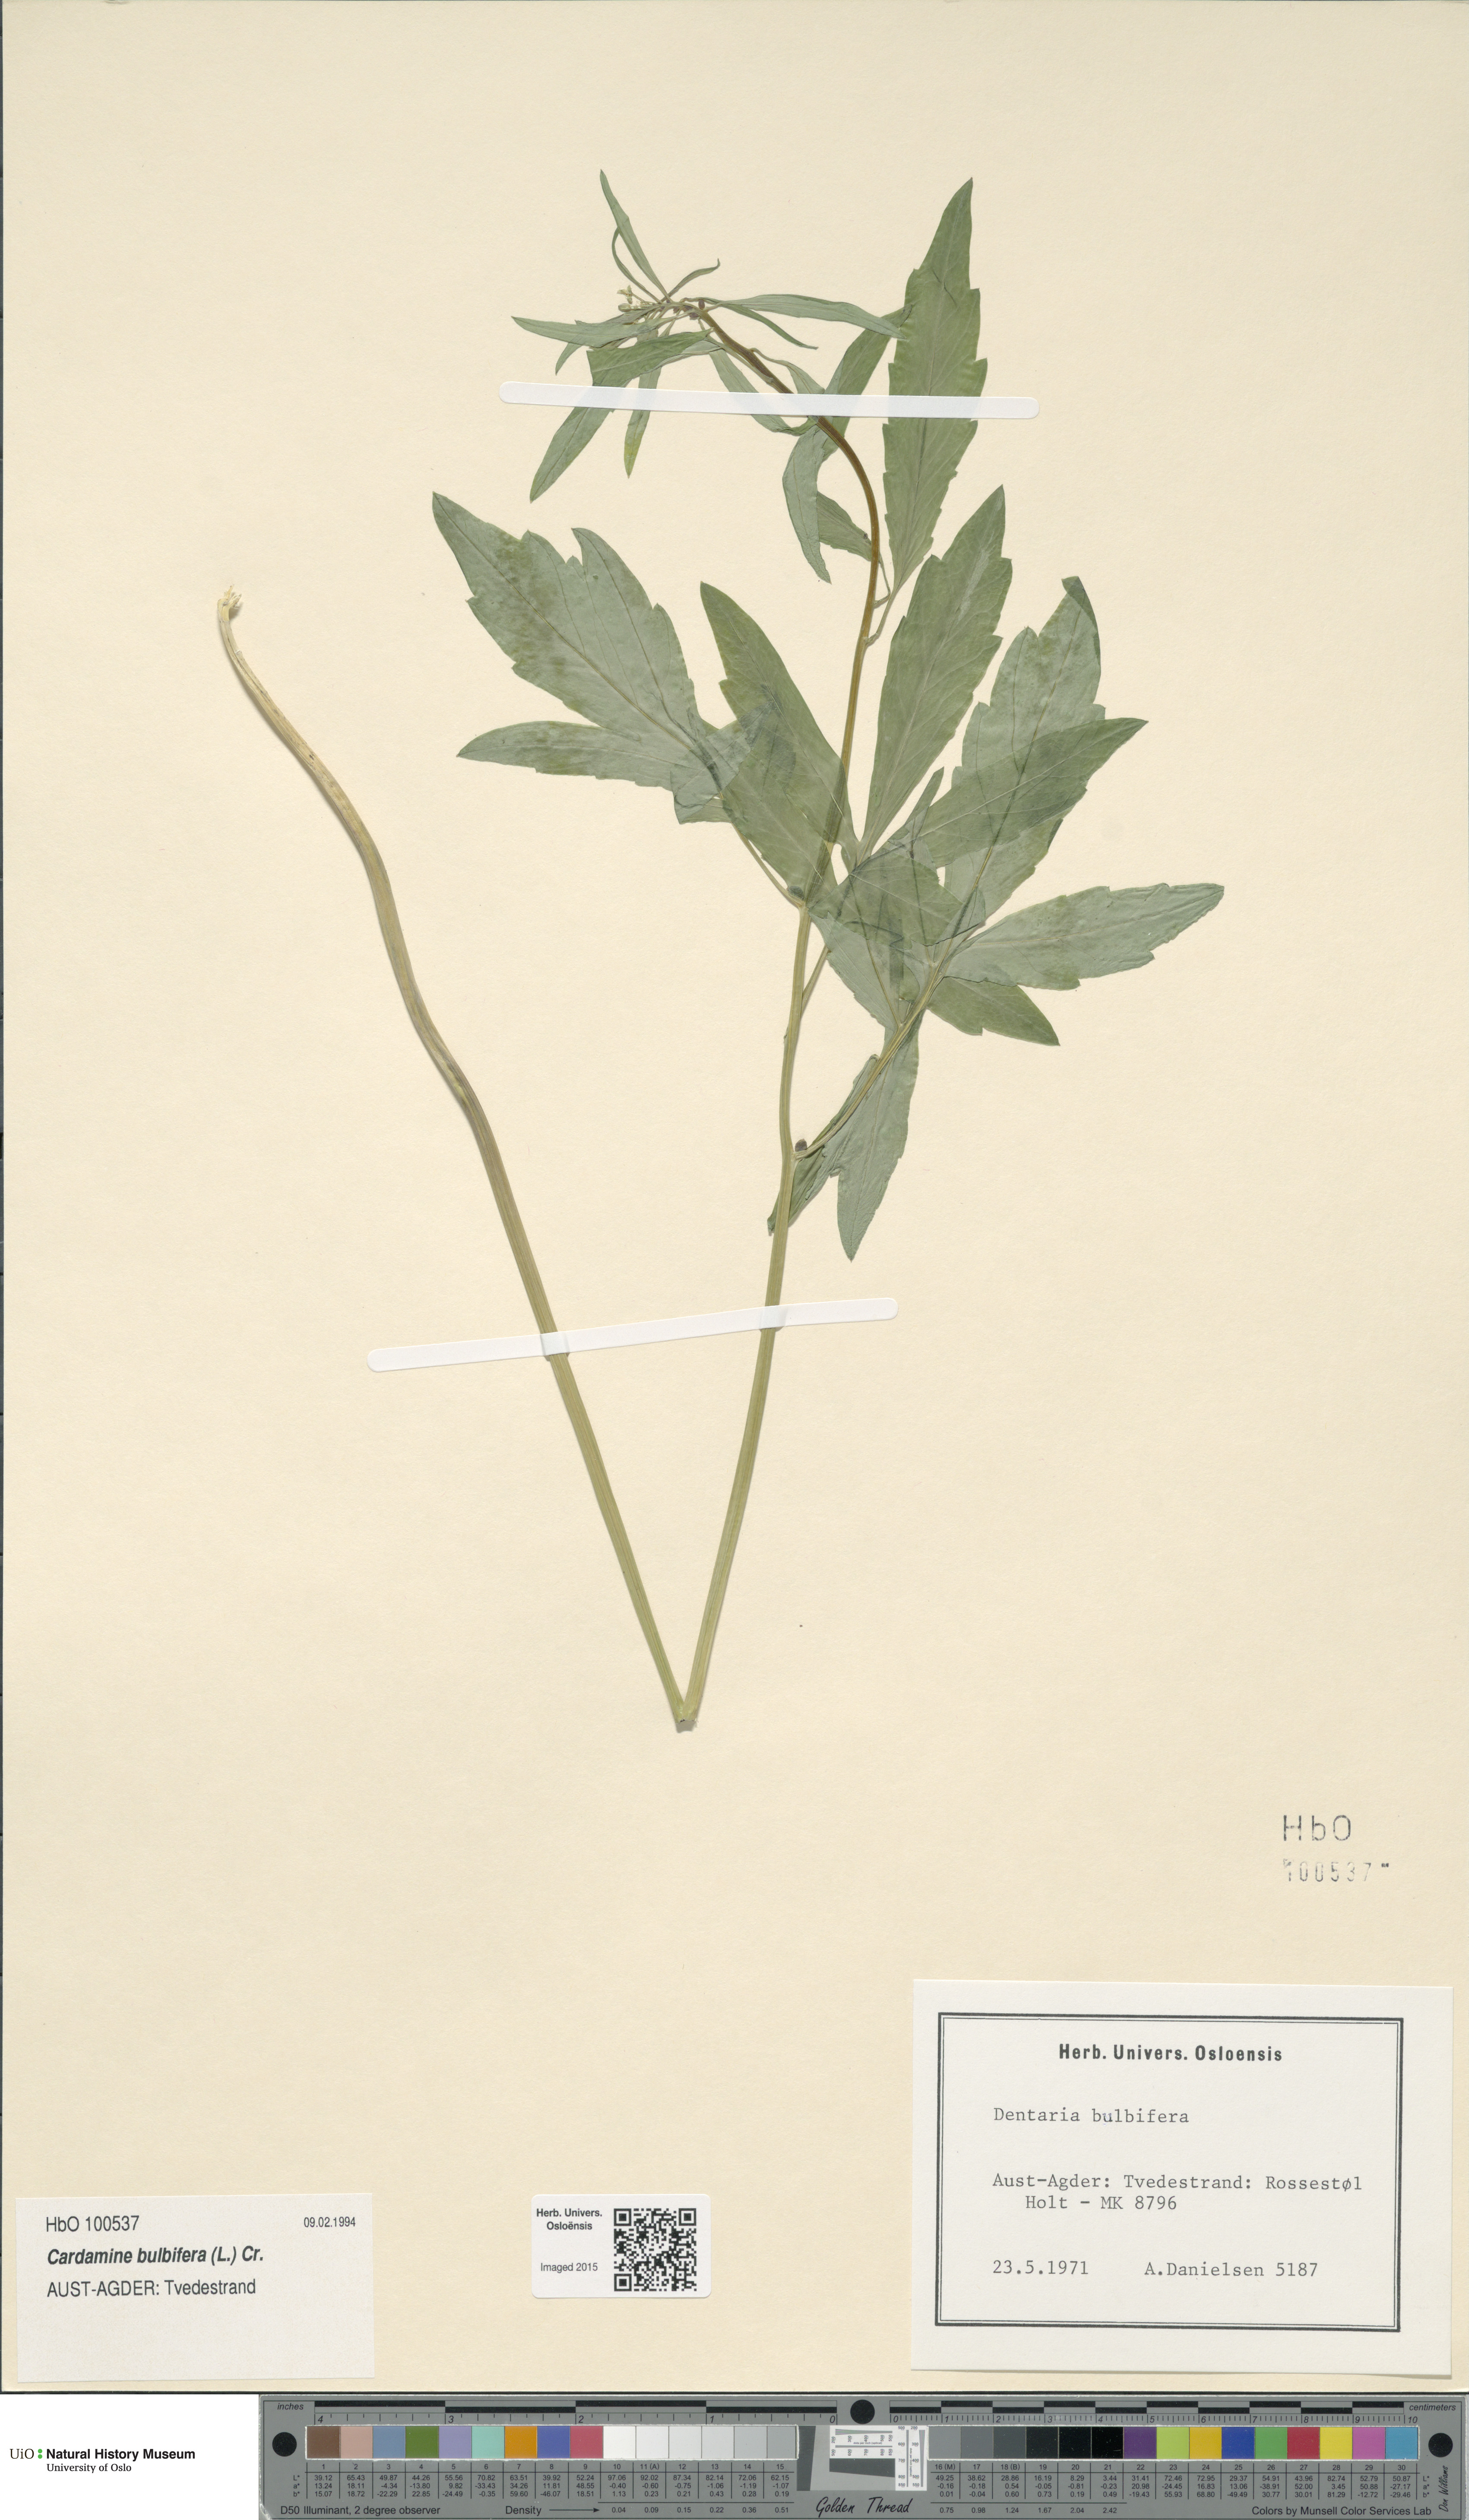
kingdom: Plantae
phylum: Tracheophyta
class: Magnoliopsida
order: Brassicales
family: Brassicaceae
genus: Cardamine
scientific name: Cardamine bulbifera
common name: Coralroot bittercress
